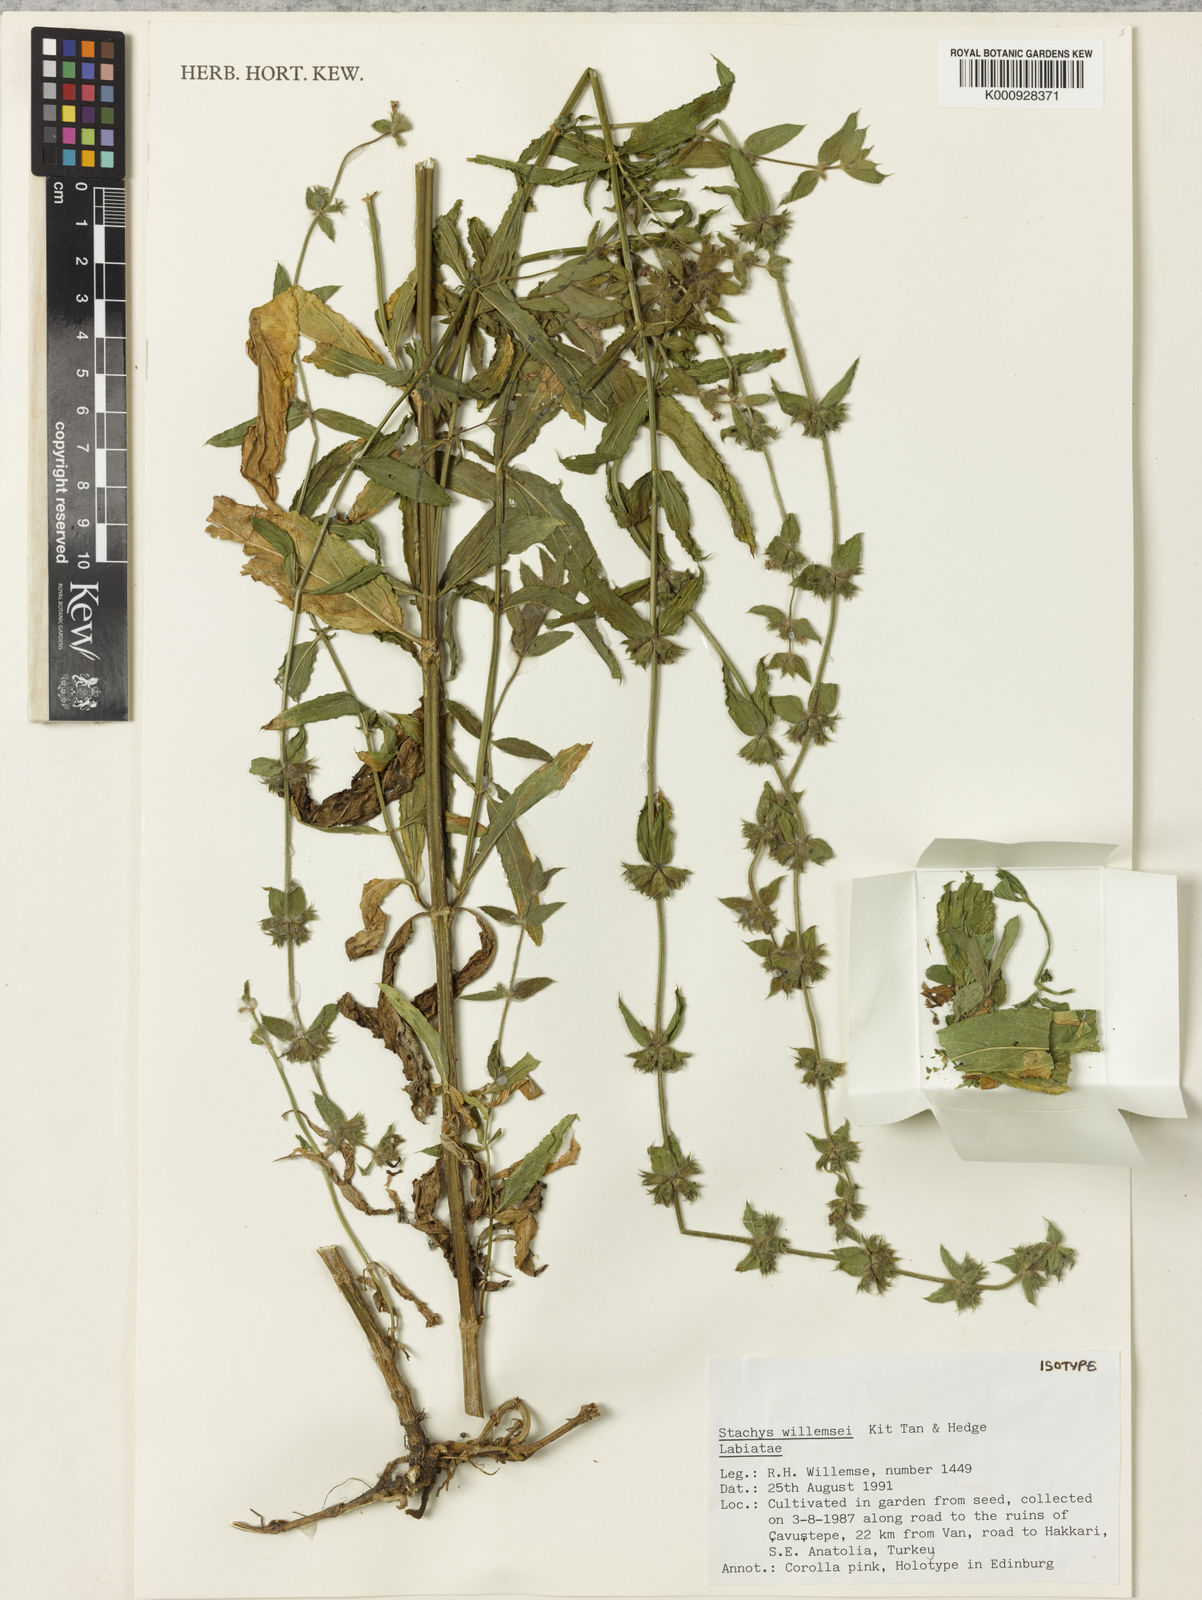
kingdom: Plantae
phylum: Tracheophyta
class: Magnoliopsida
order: Lamiales
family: Lamiaceae
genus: Stachys
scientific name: Stachys willemsei
